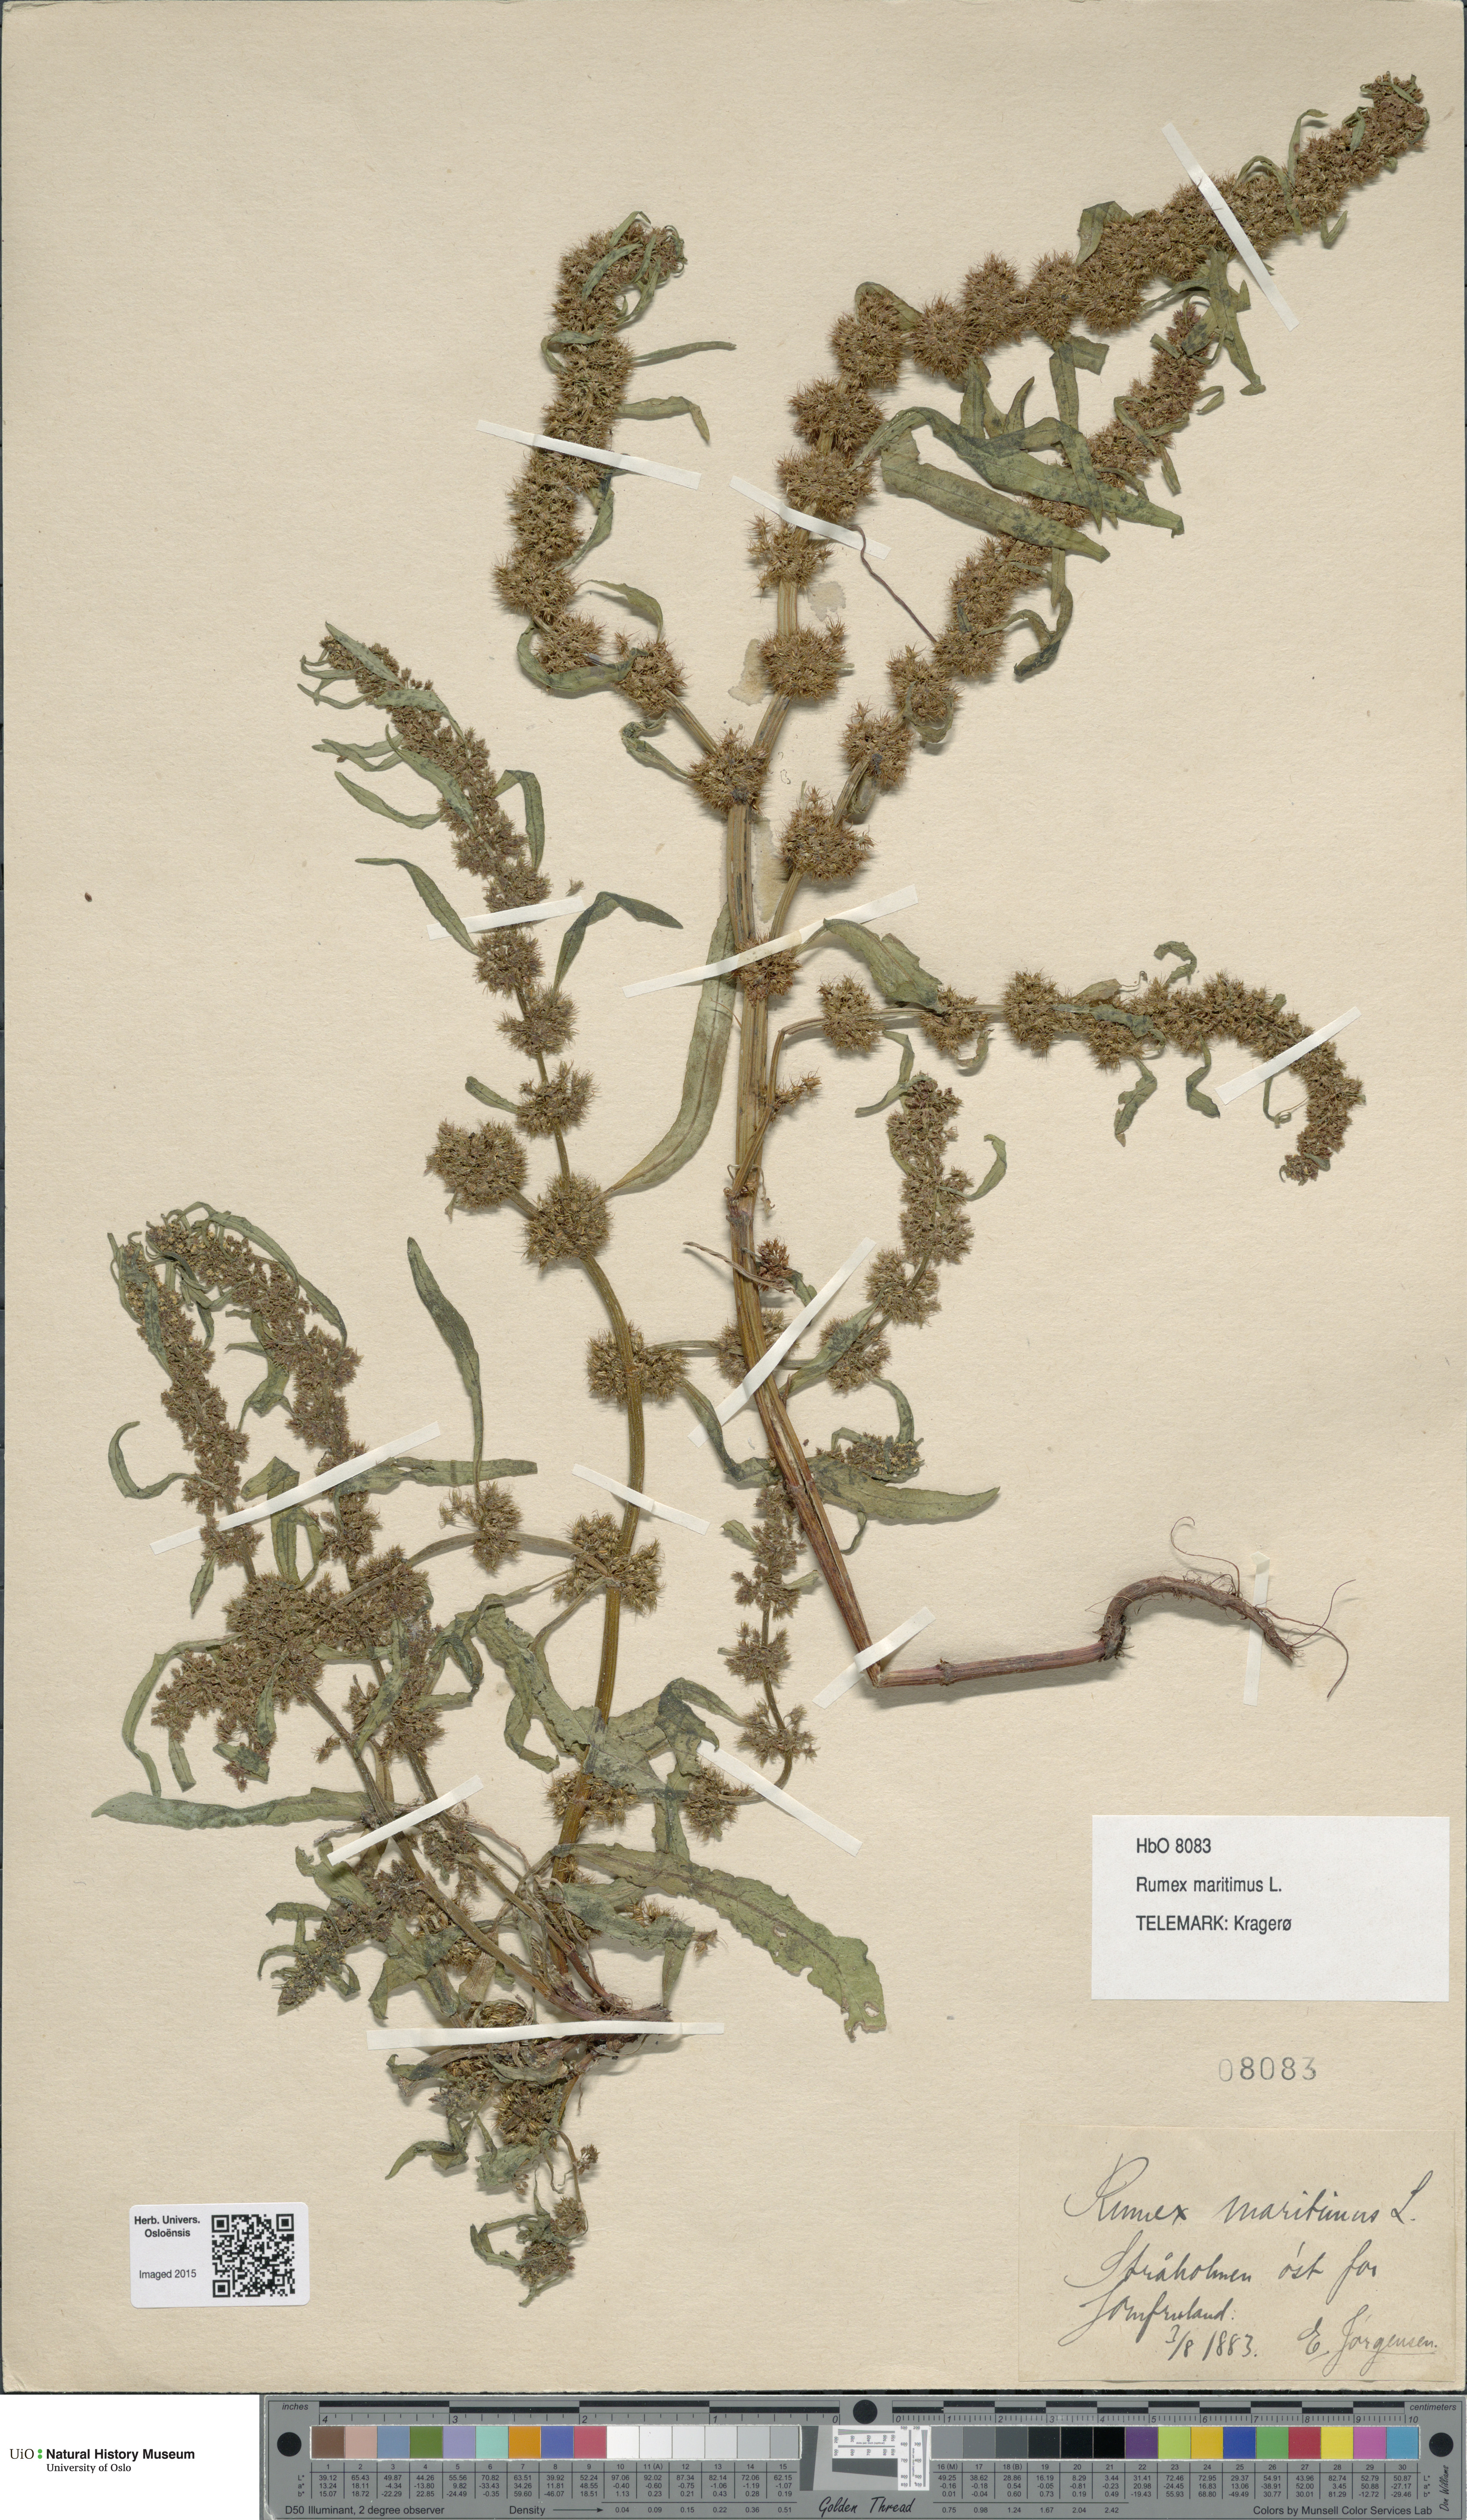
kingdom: Plantae
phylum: Tracheophyta
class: Magnoliopsida
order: Caryophyllales
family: Polygonaceae
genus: Rumex
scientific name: Rumex maritimus
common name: Golden dock
